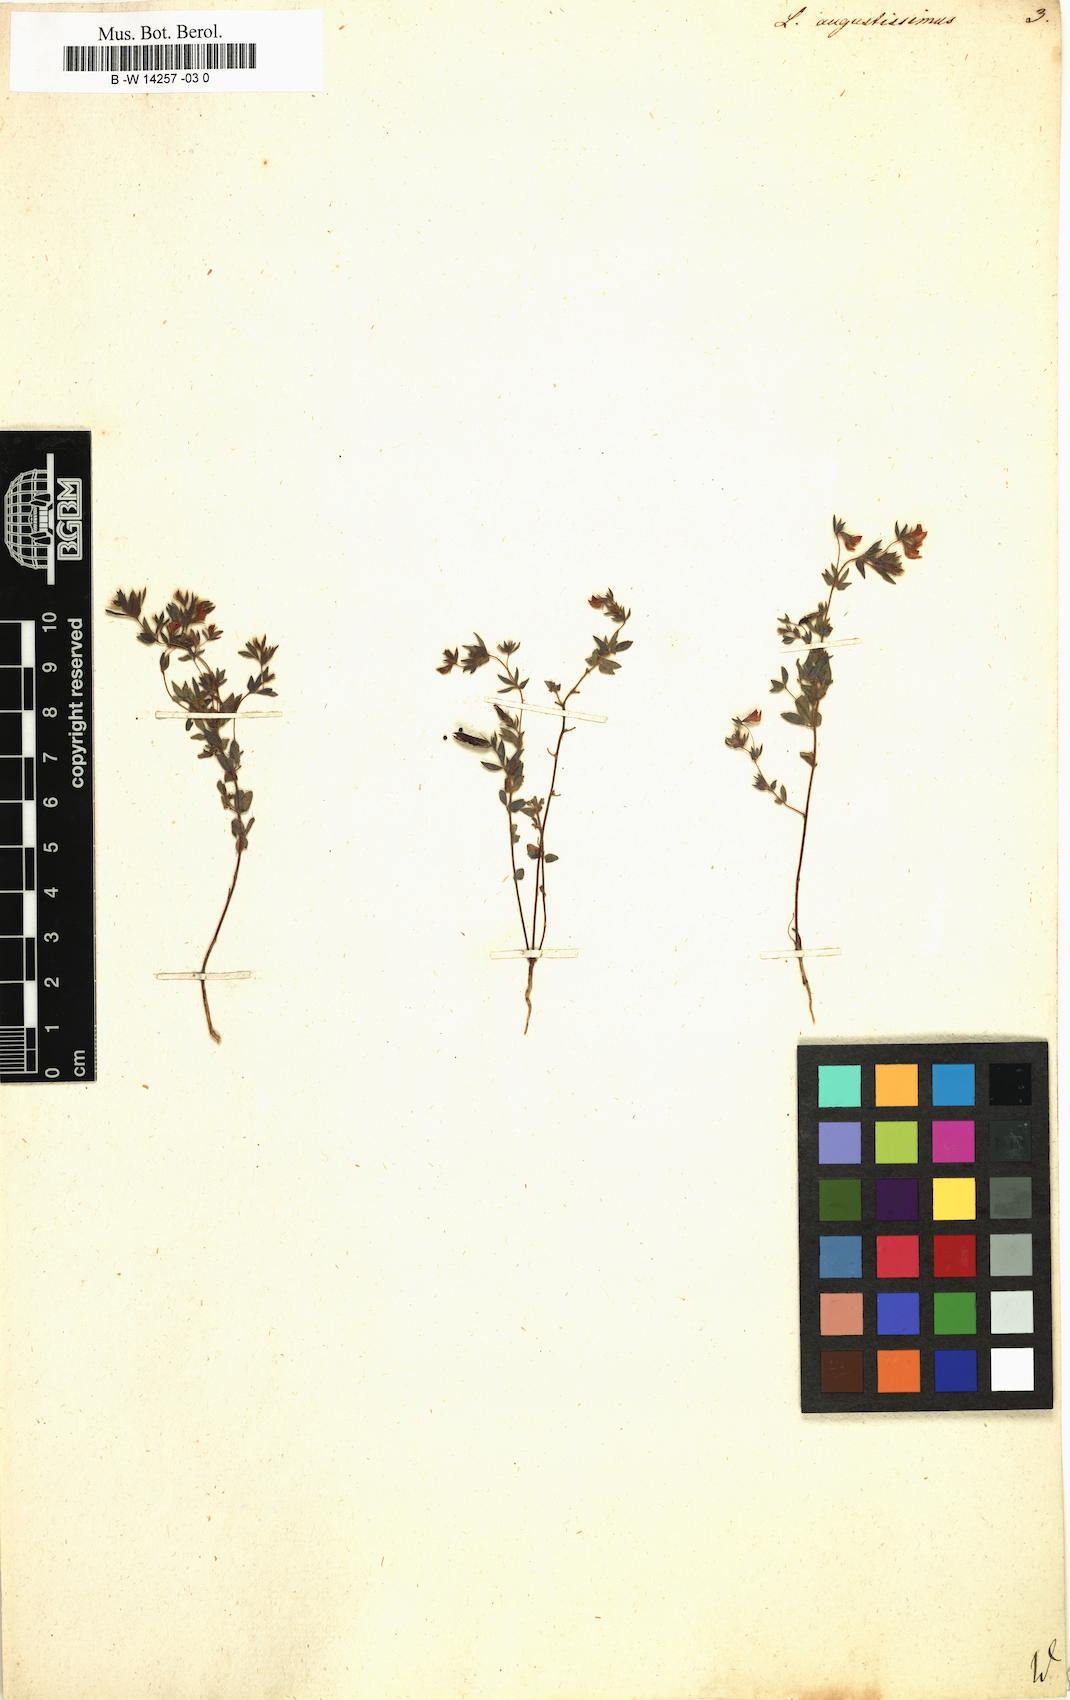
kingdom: Plantae
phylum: Tracheophyta
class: Magnoliopsida
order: Fabales
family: Fabaceae
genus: Lotus
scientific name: Lotus angustissimus
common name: Slender bird's-foot trefoil
